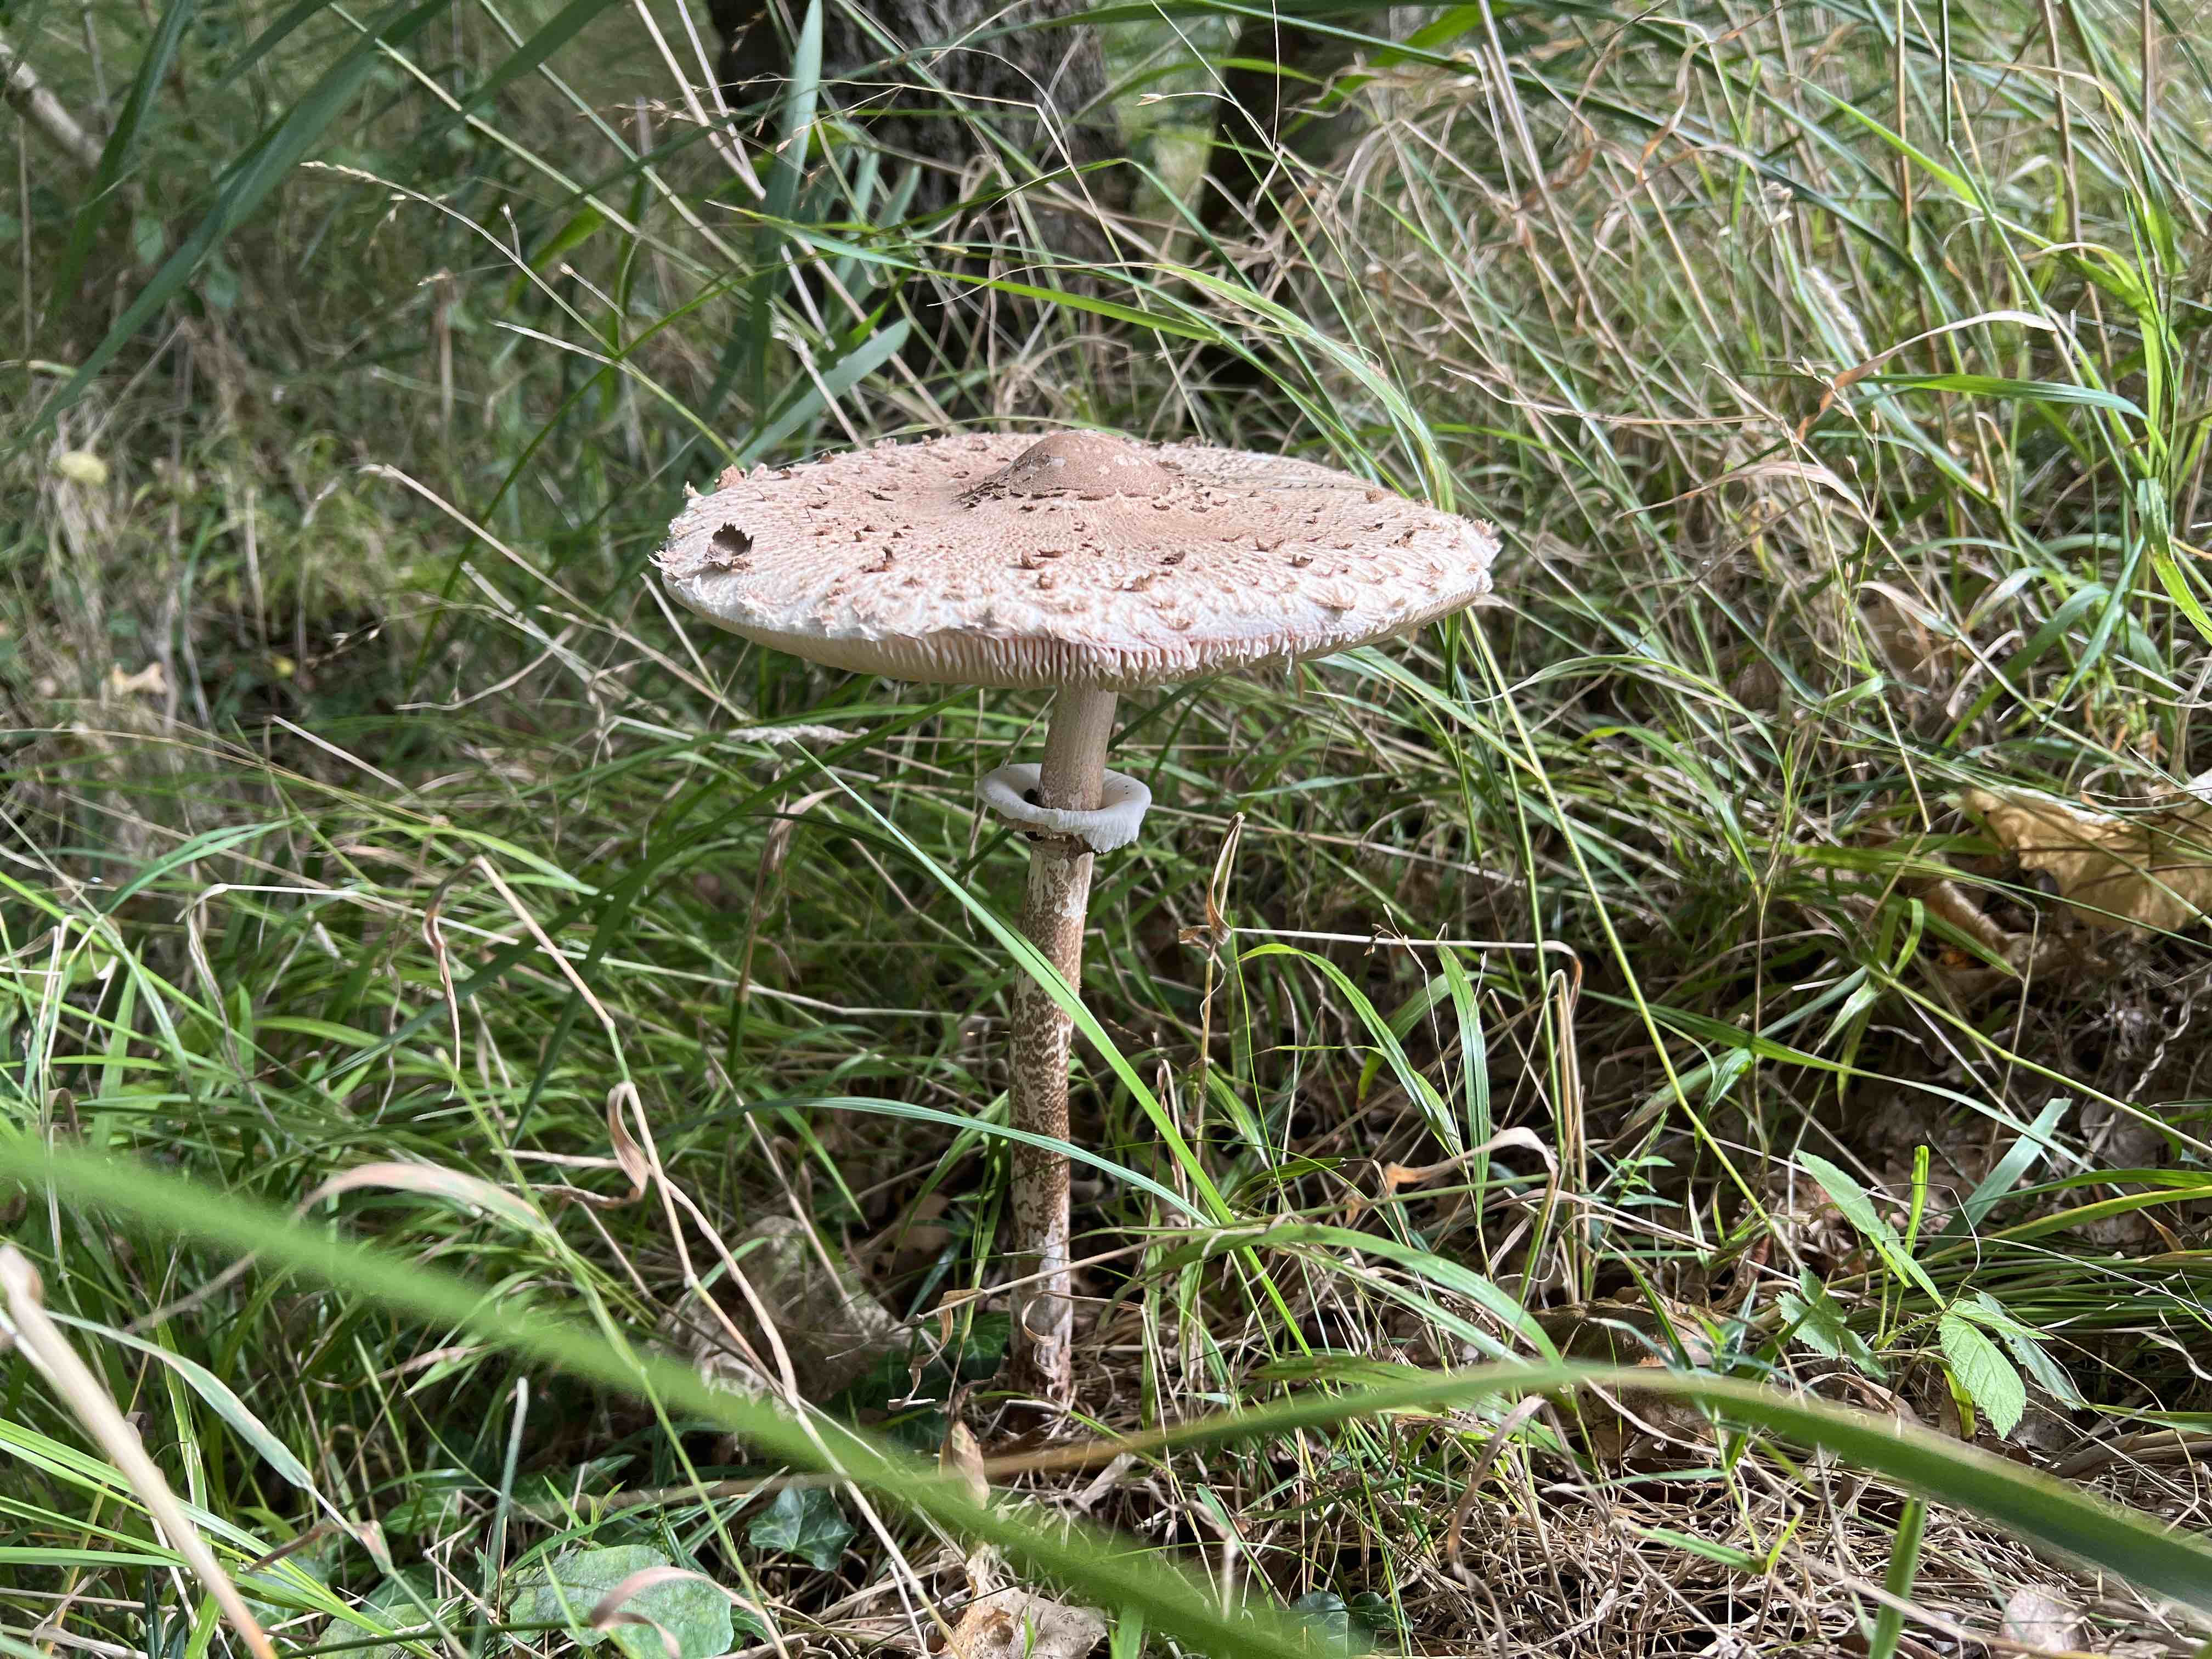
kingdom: Fungi
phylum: Basidiomycota
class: Agaricomycetes
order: Agaricales
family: Agaricaceae
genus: Macrolepiota
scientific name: Macrolepiota
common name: kæmpeparasolhat
